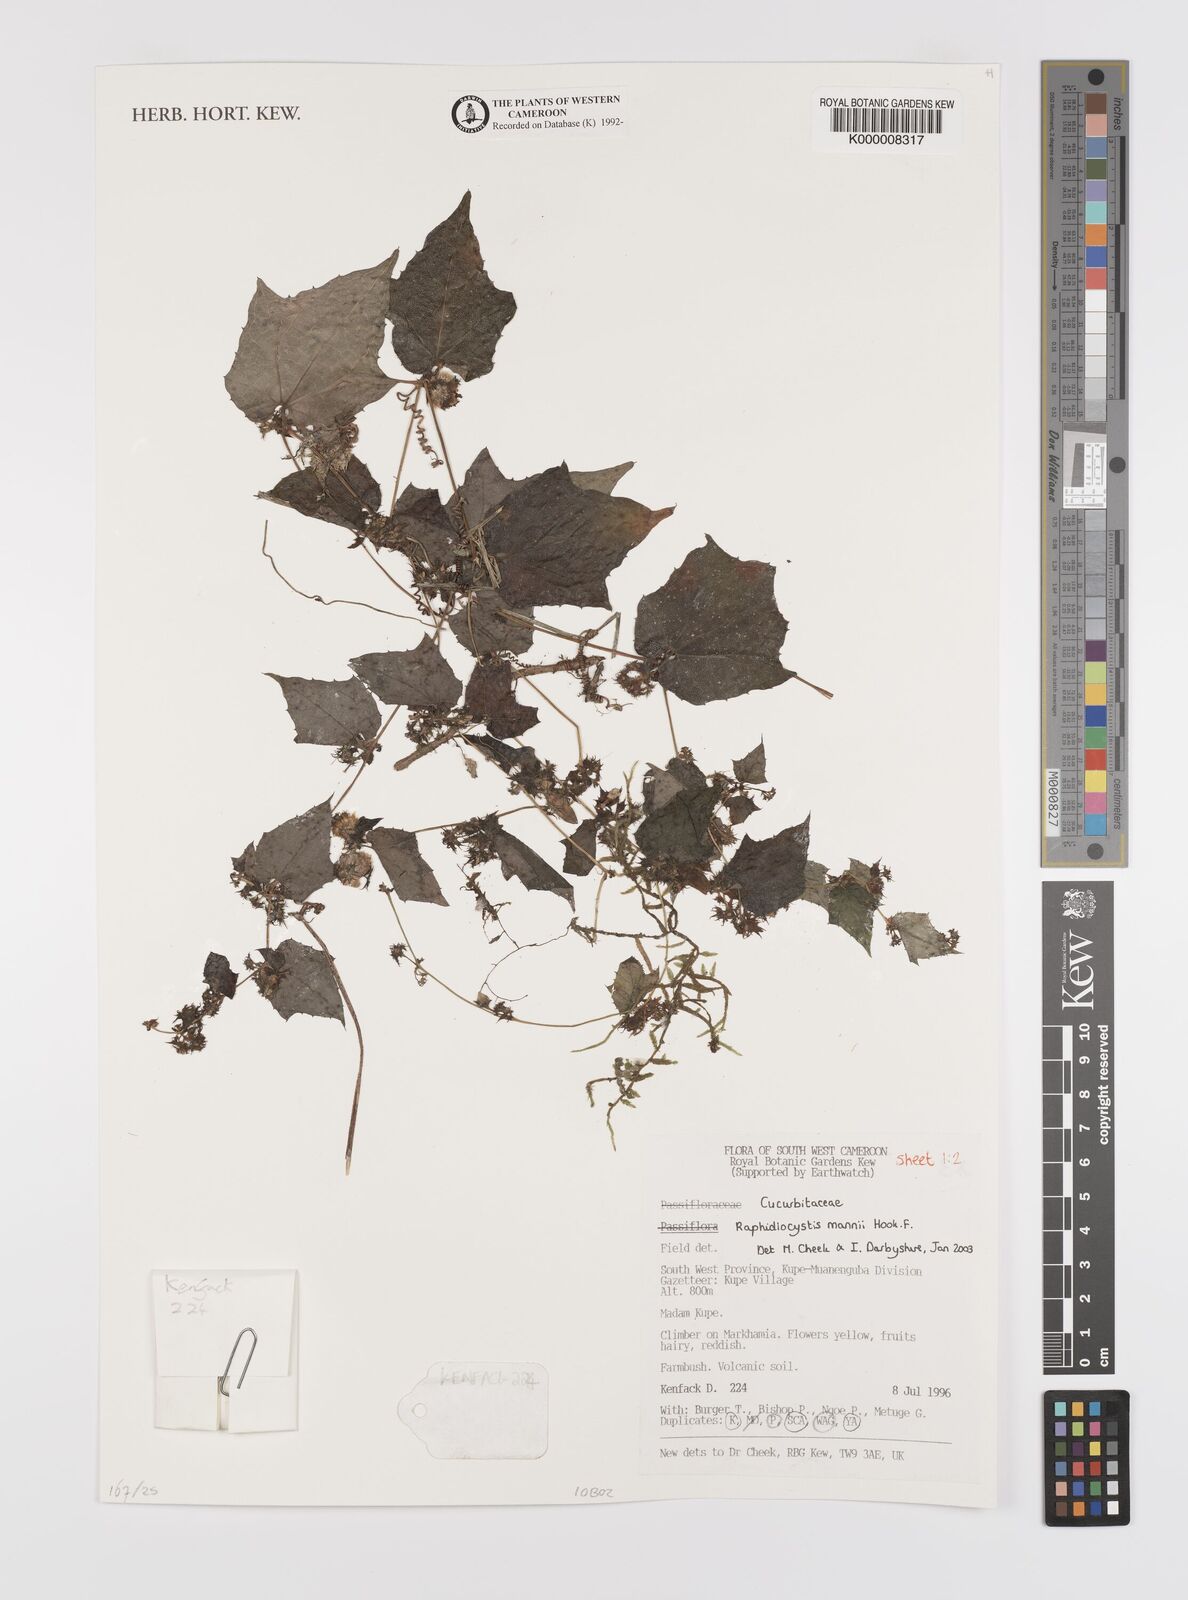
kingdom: Plantae
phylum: Tracheophyta
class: Magnoliopsida
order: Cucurbitales
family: Cucurbitaceae
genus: Raphidiocystis
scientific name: Raphidiocystis mannii
